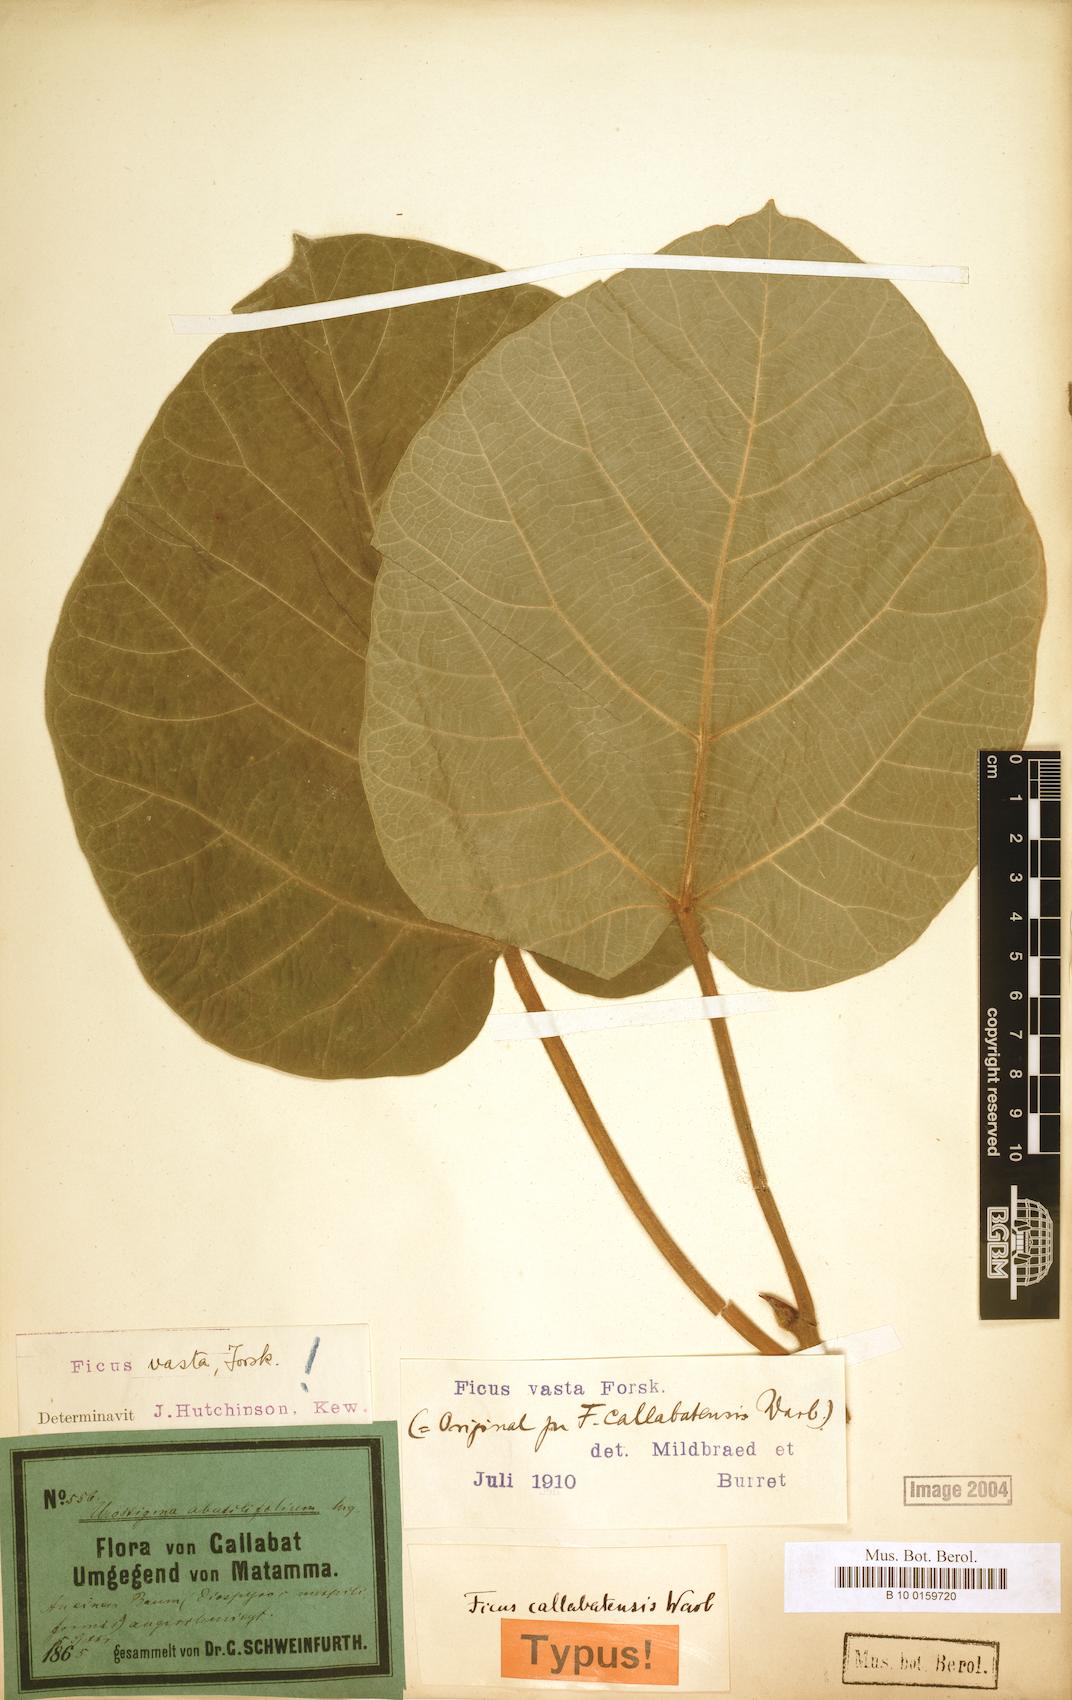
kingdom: Plantae
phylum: Tracheophyta
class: Magnoliopsida
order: Rosales
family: Moraceae
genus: Ficus
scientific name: Ficus vasta
